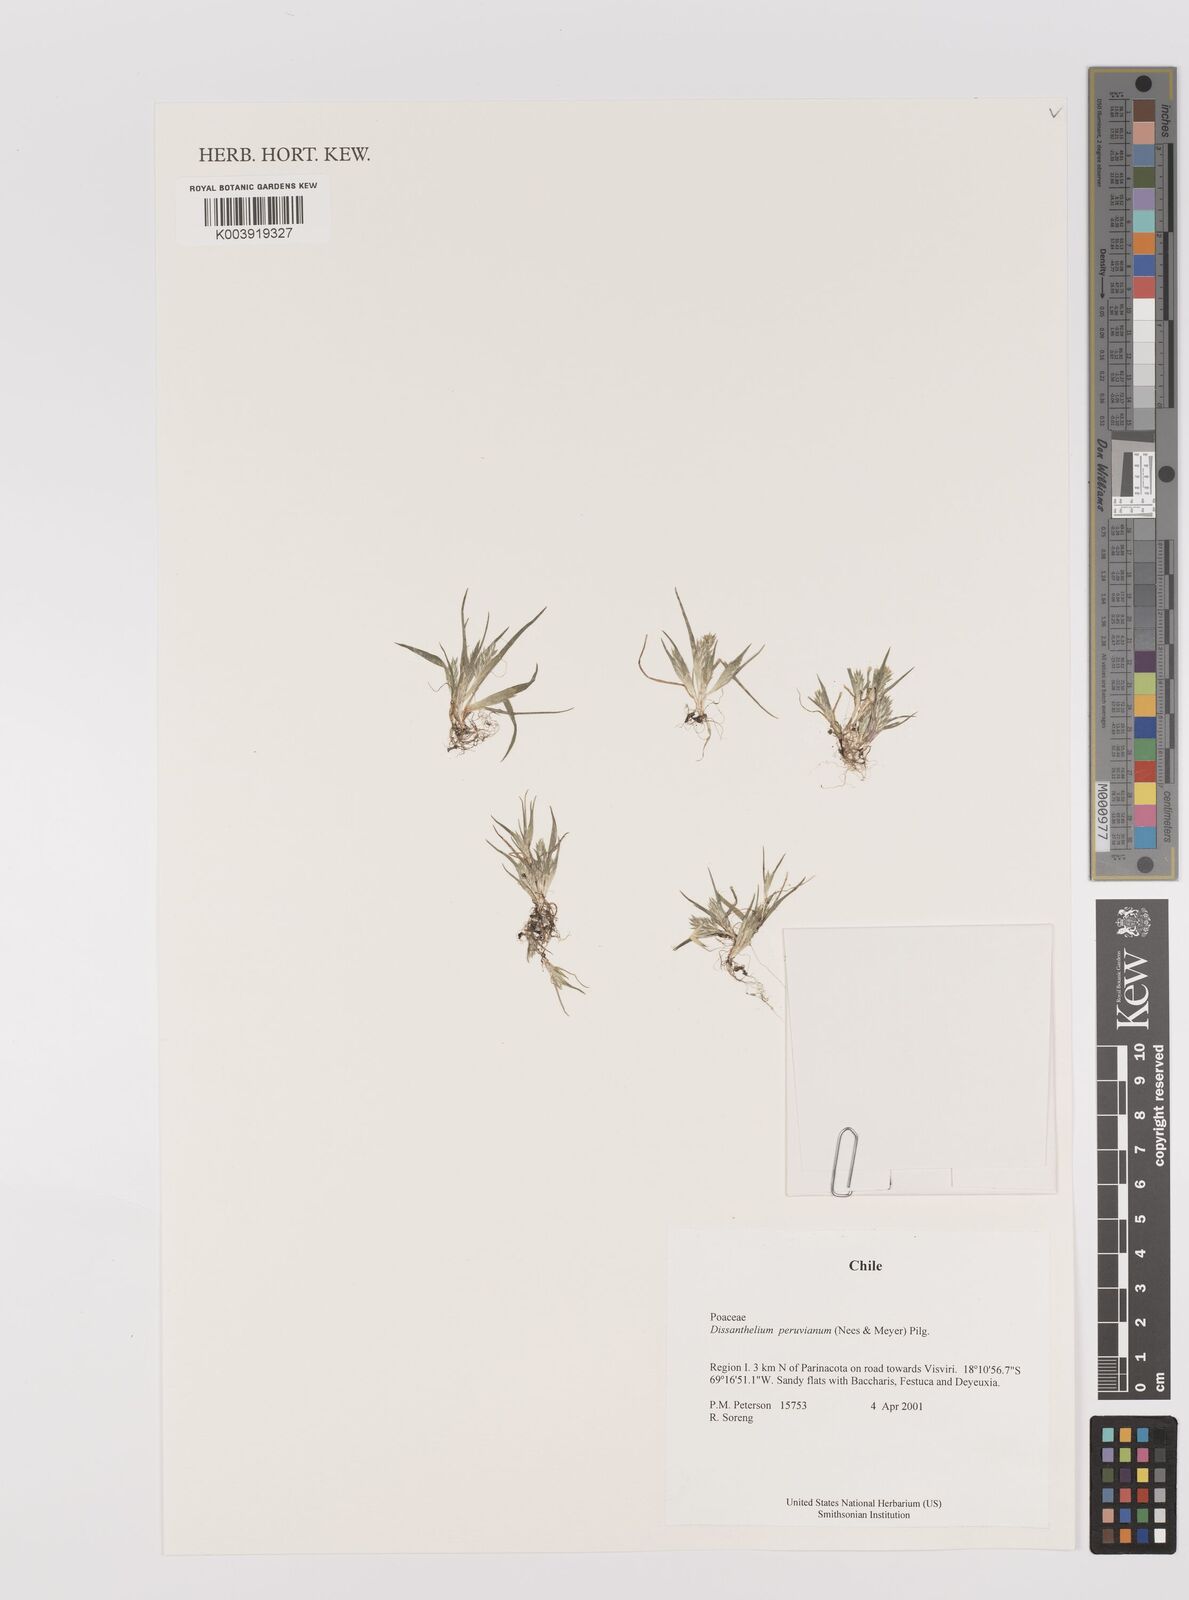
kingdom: Plantae
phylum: Tracheophyta
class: Liliopsida
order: Poales
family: Poaceae
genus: Poa
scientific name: Poa serpana
